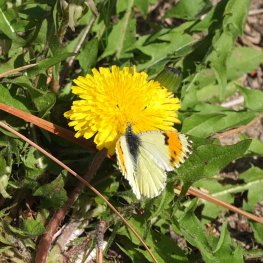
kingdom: Animalia
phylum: Arthropoda
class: Insecta
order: Lepidoptera
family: Pieridae
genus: Anthocharis
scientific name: Anthocharis sara
